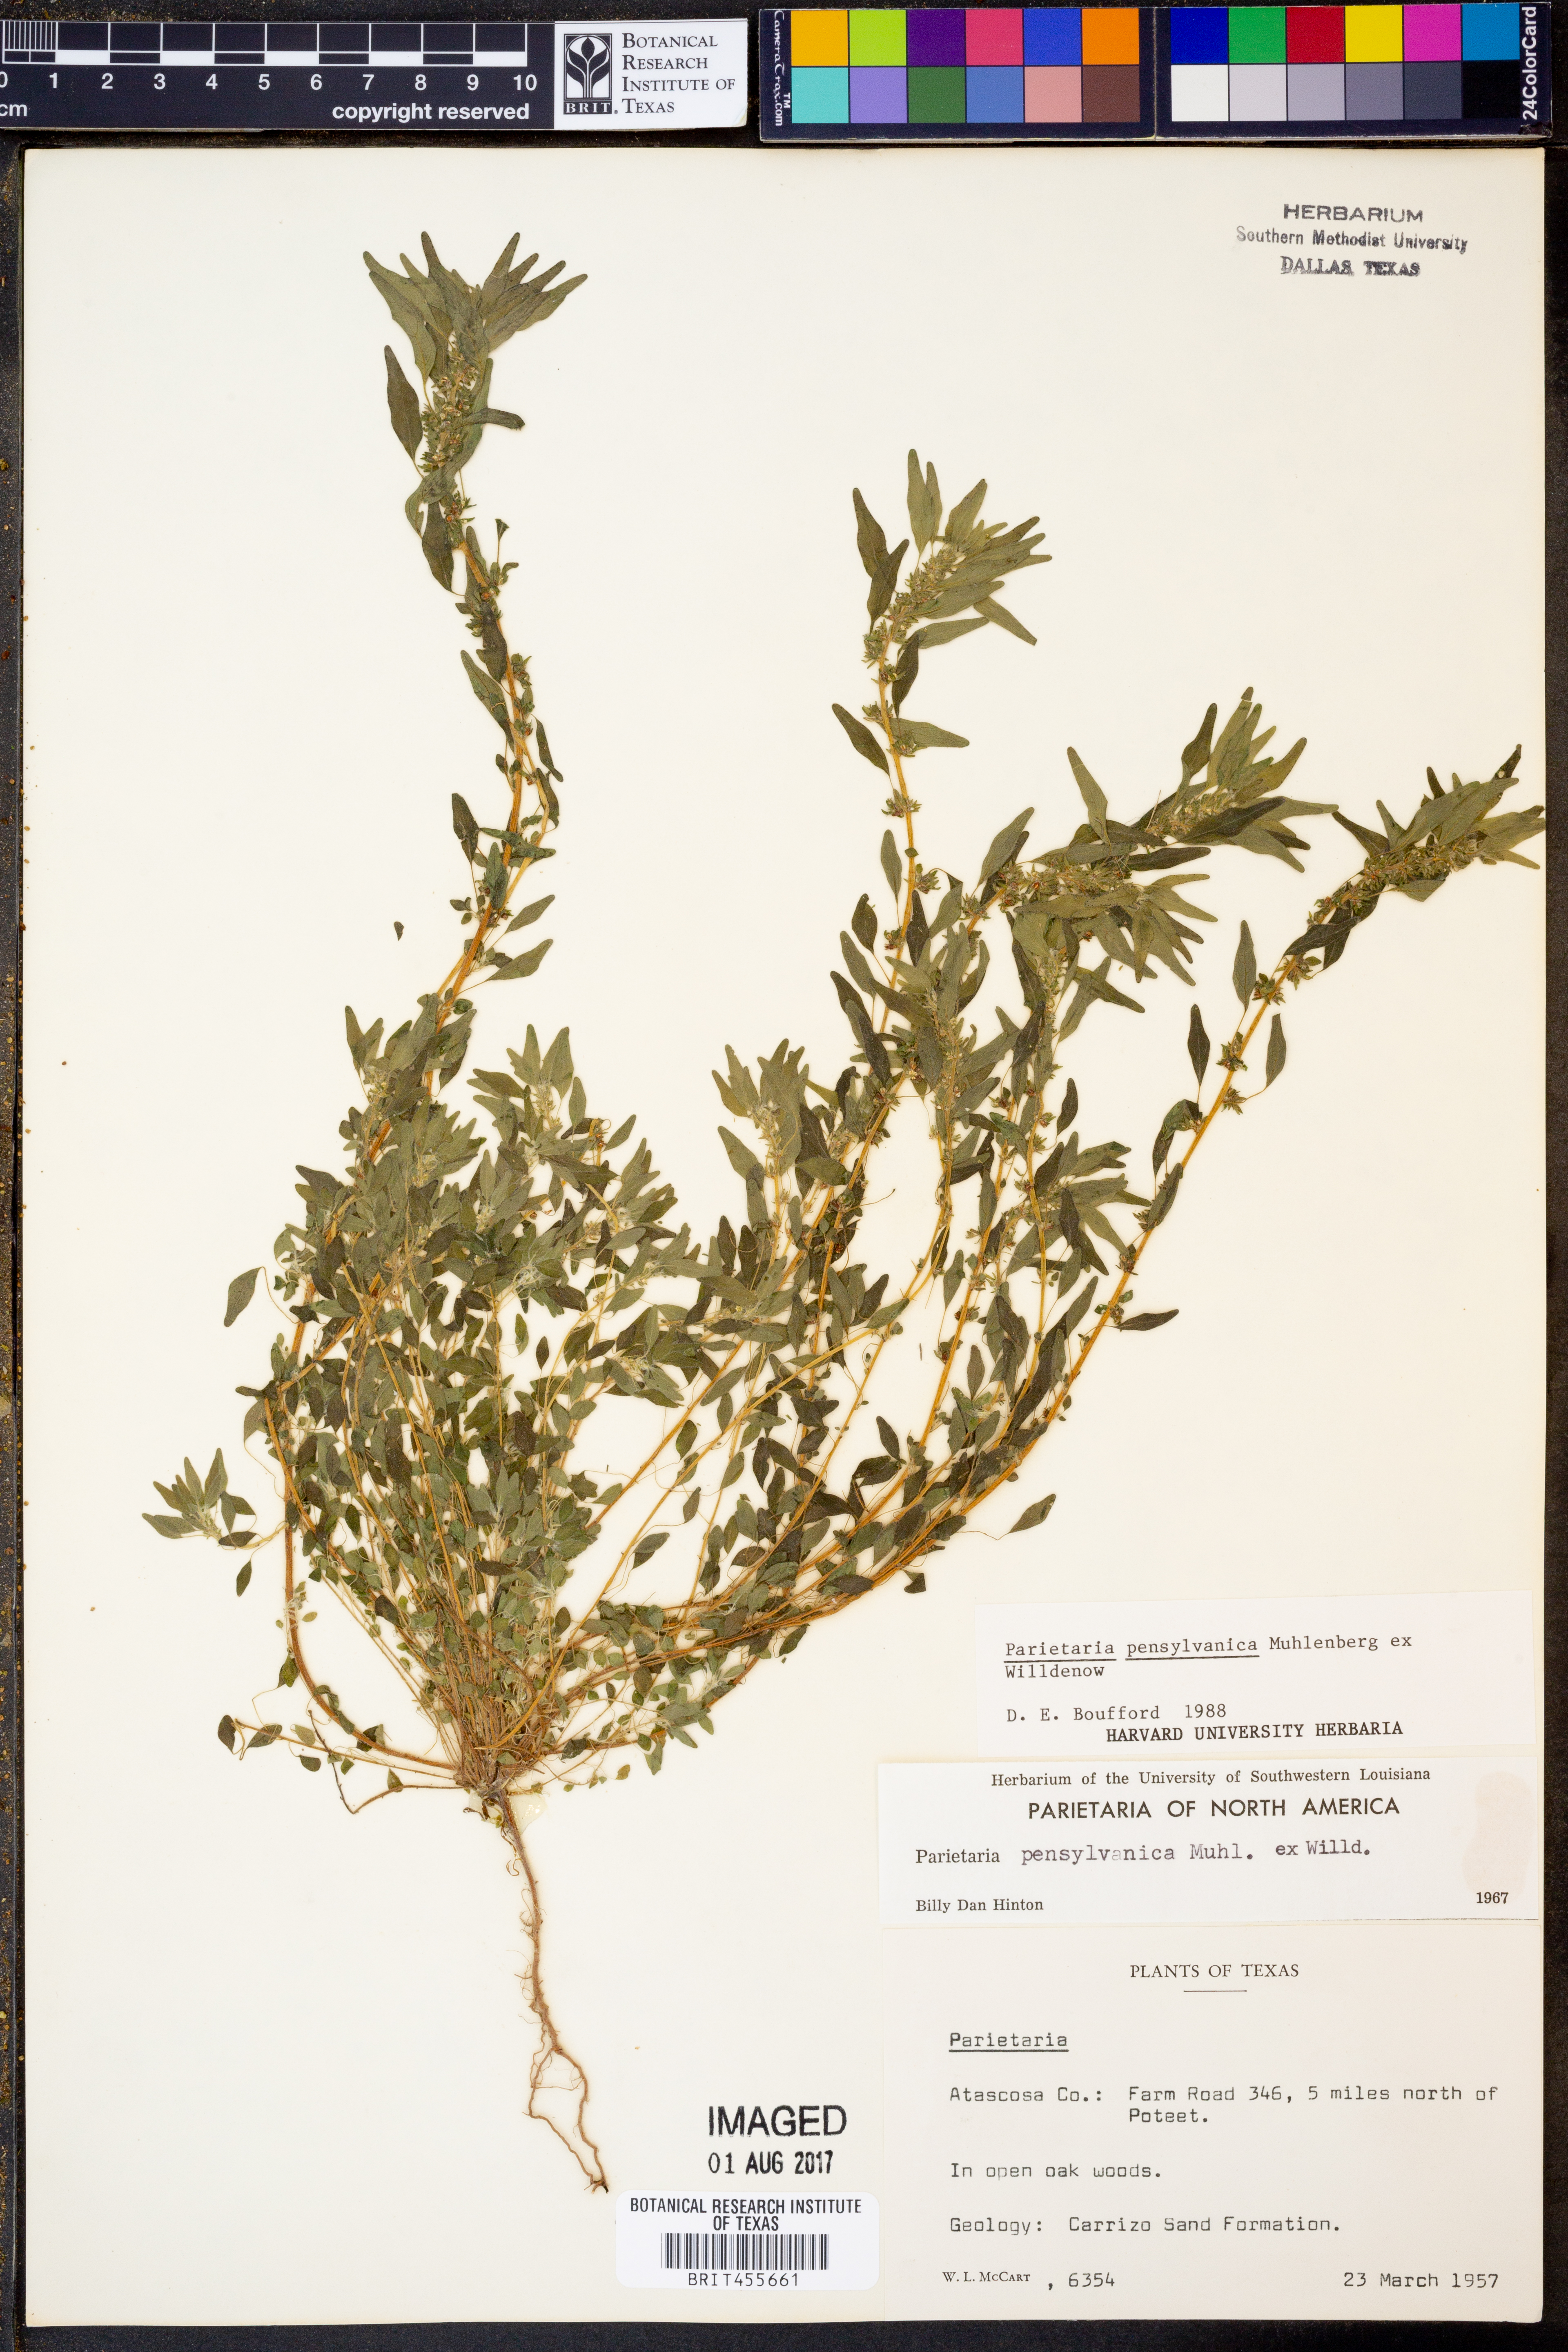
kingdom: Plantae
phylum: Tracheophyta
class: Magnoliopsida
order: Rosales
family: Urticaceae
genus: Parietaria
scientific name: Parietaria pensylvanica
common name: Pennsylvania pellitory
